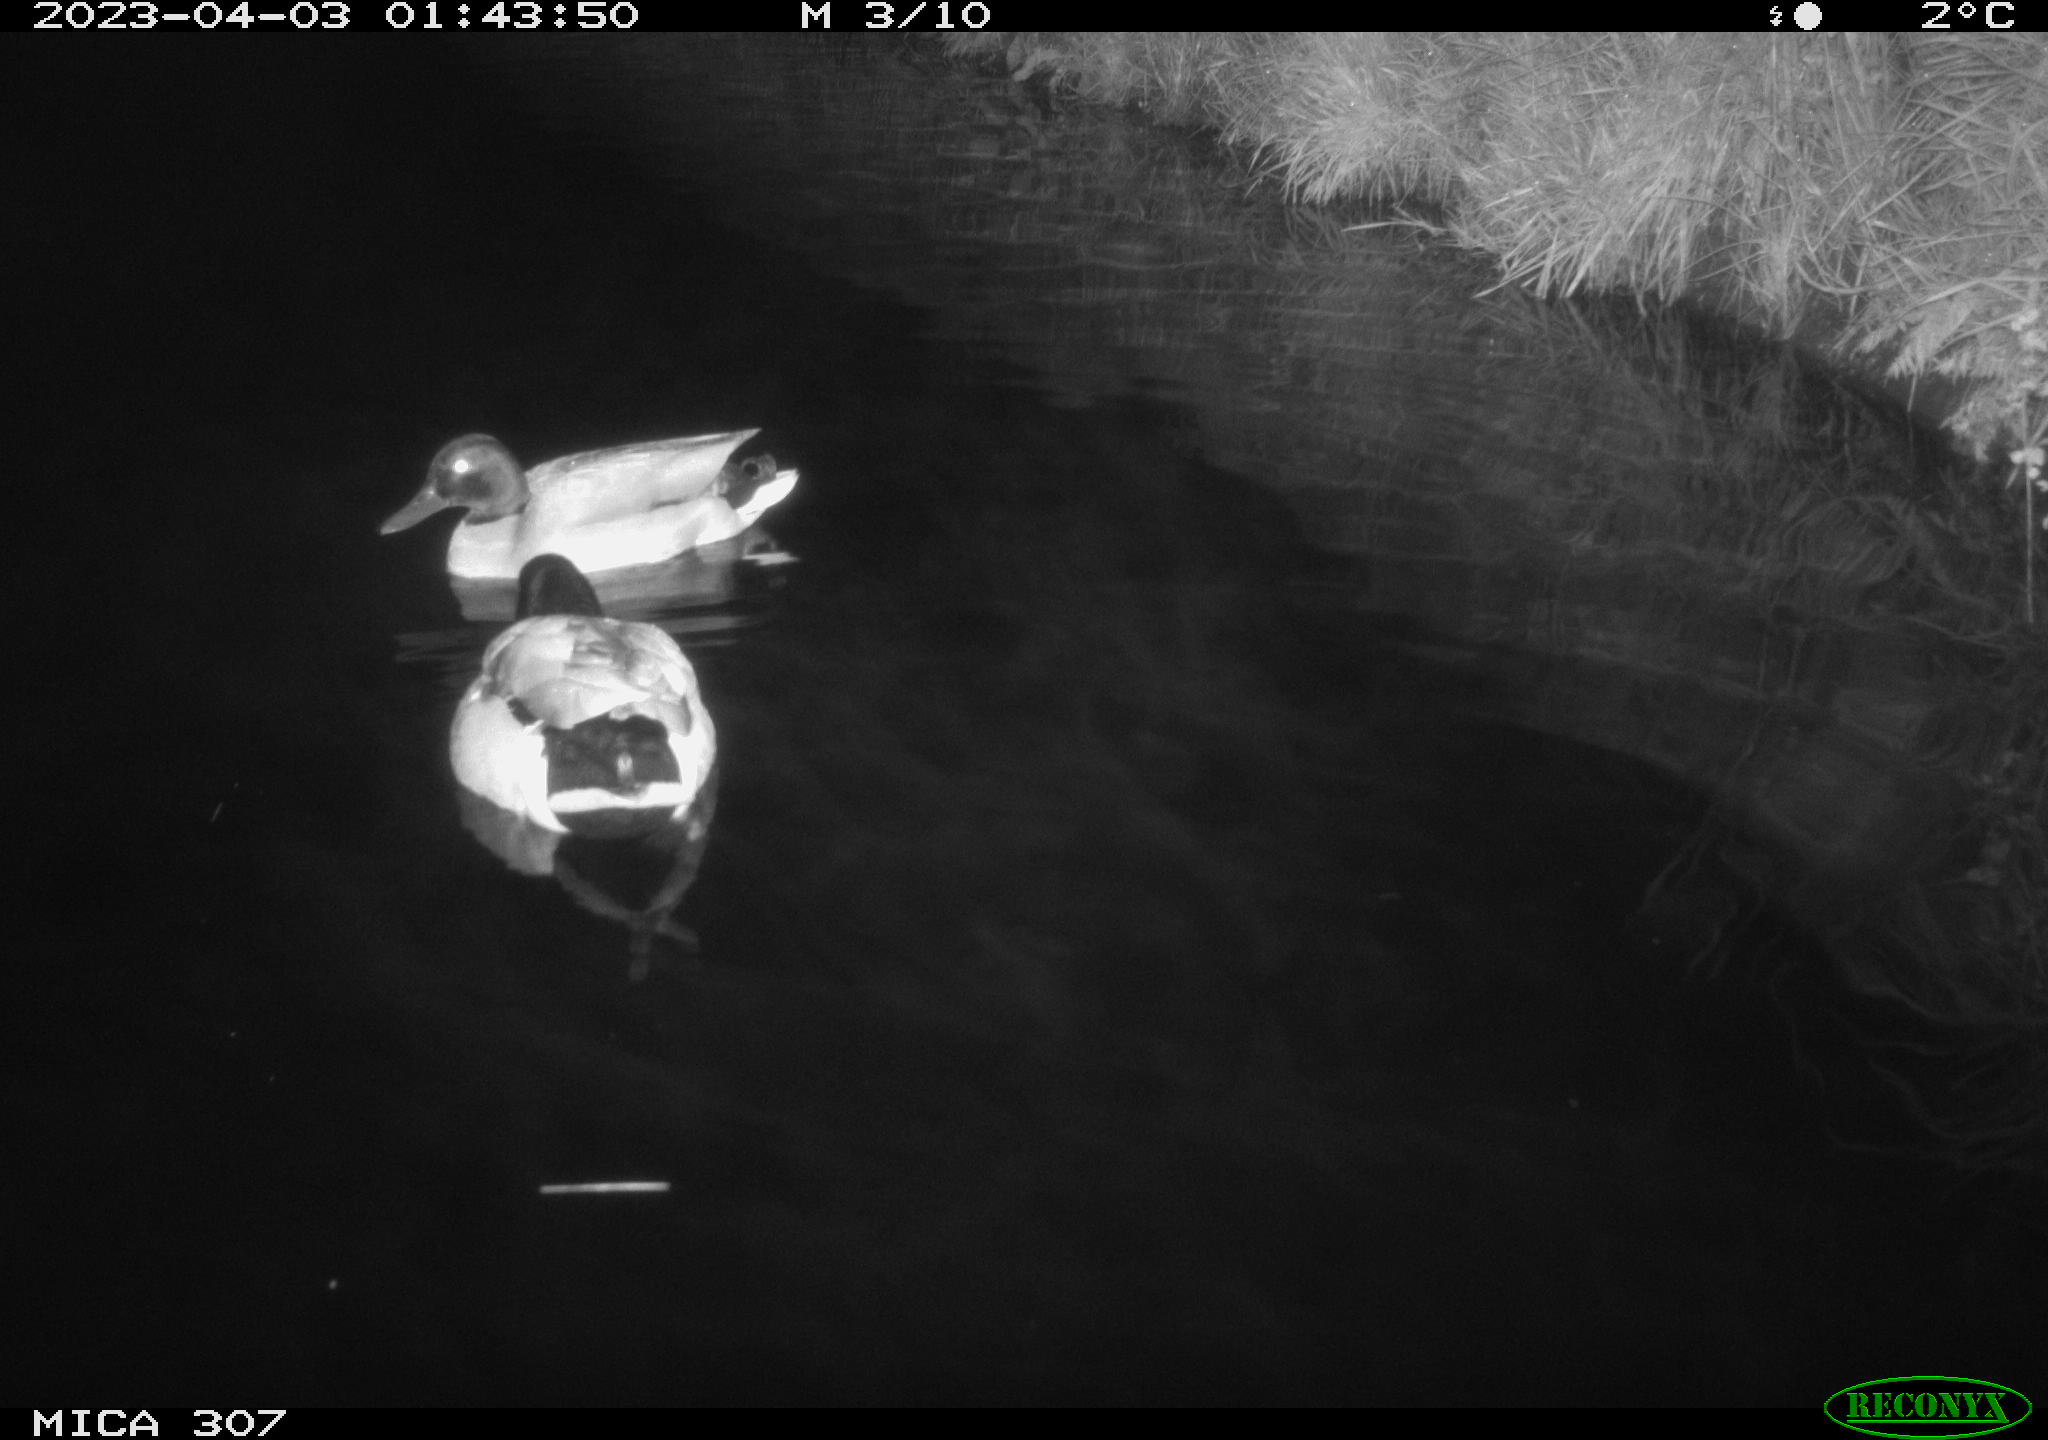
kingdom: Animalia
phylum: Chordata
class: Aves
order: Anseriformes
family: Anatidae
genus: Anas
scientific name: Anas
